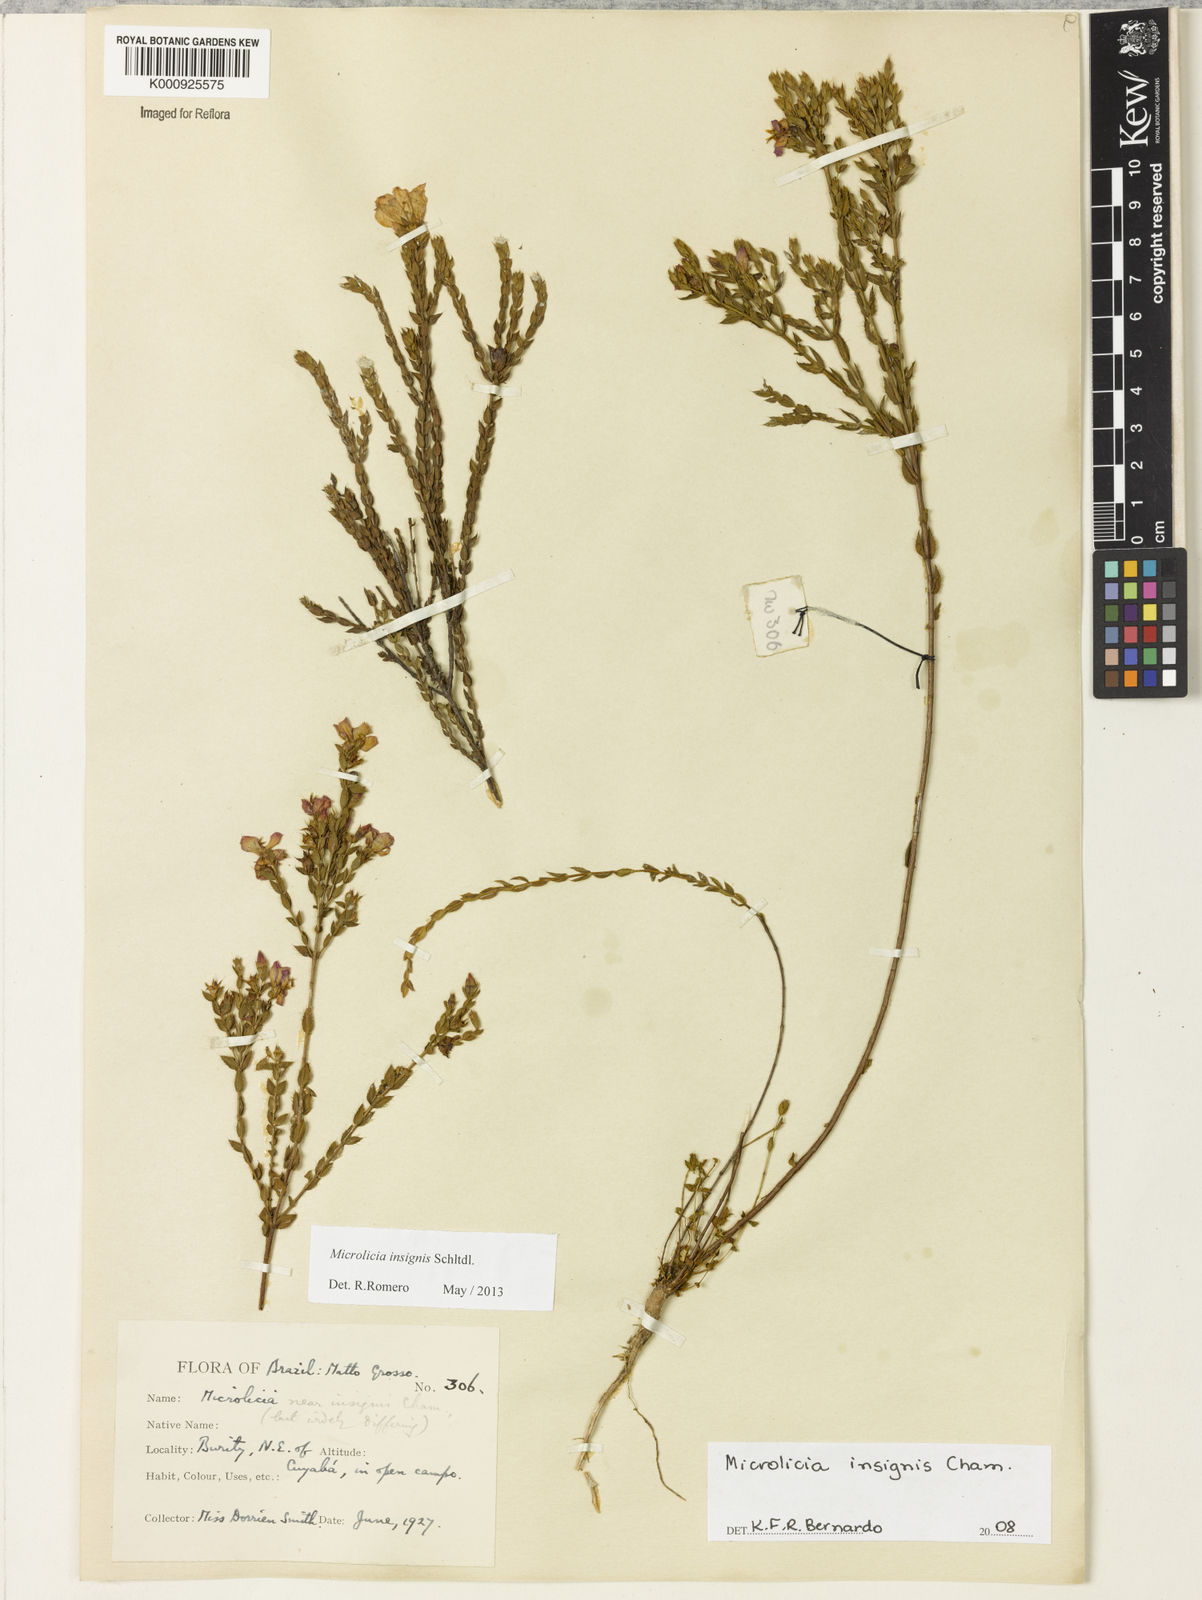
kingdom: Plantae
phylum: Tracheophyta
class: Magnoliopsida
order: Myrtales
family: Melastomataceae
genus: Microlicia
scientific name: Microlicia
